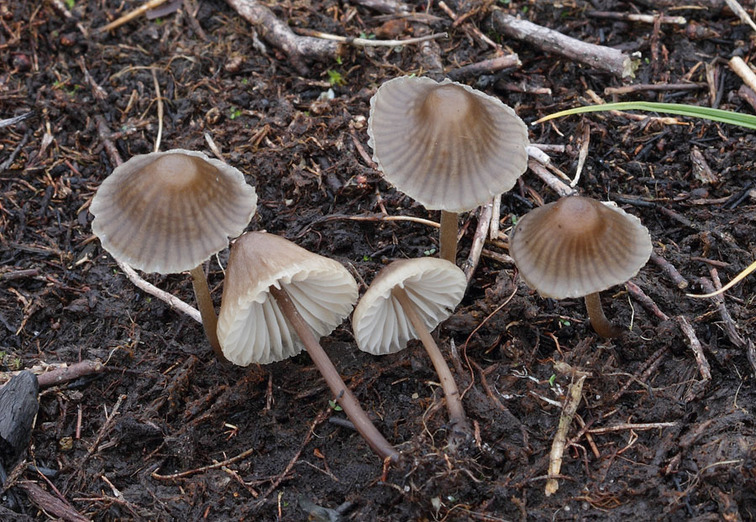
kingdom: Fungi
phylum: Basidiomycota
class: Agaricomycetes
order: Agaricales
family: Mycenaceae
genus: Mycena
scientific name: Mycena galopus
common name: hvidmælket huesvamp
